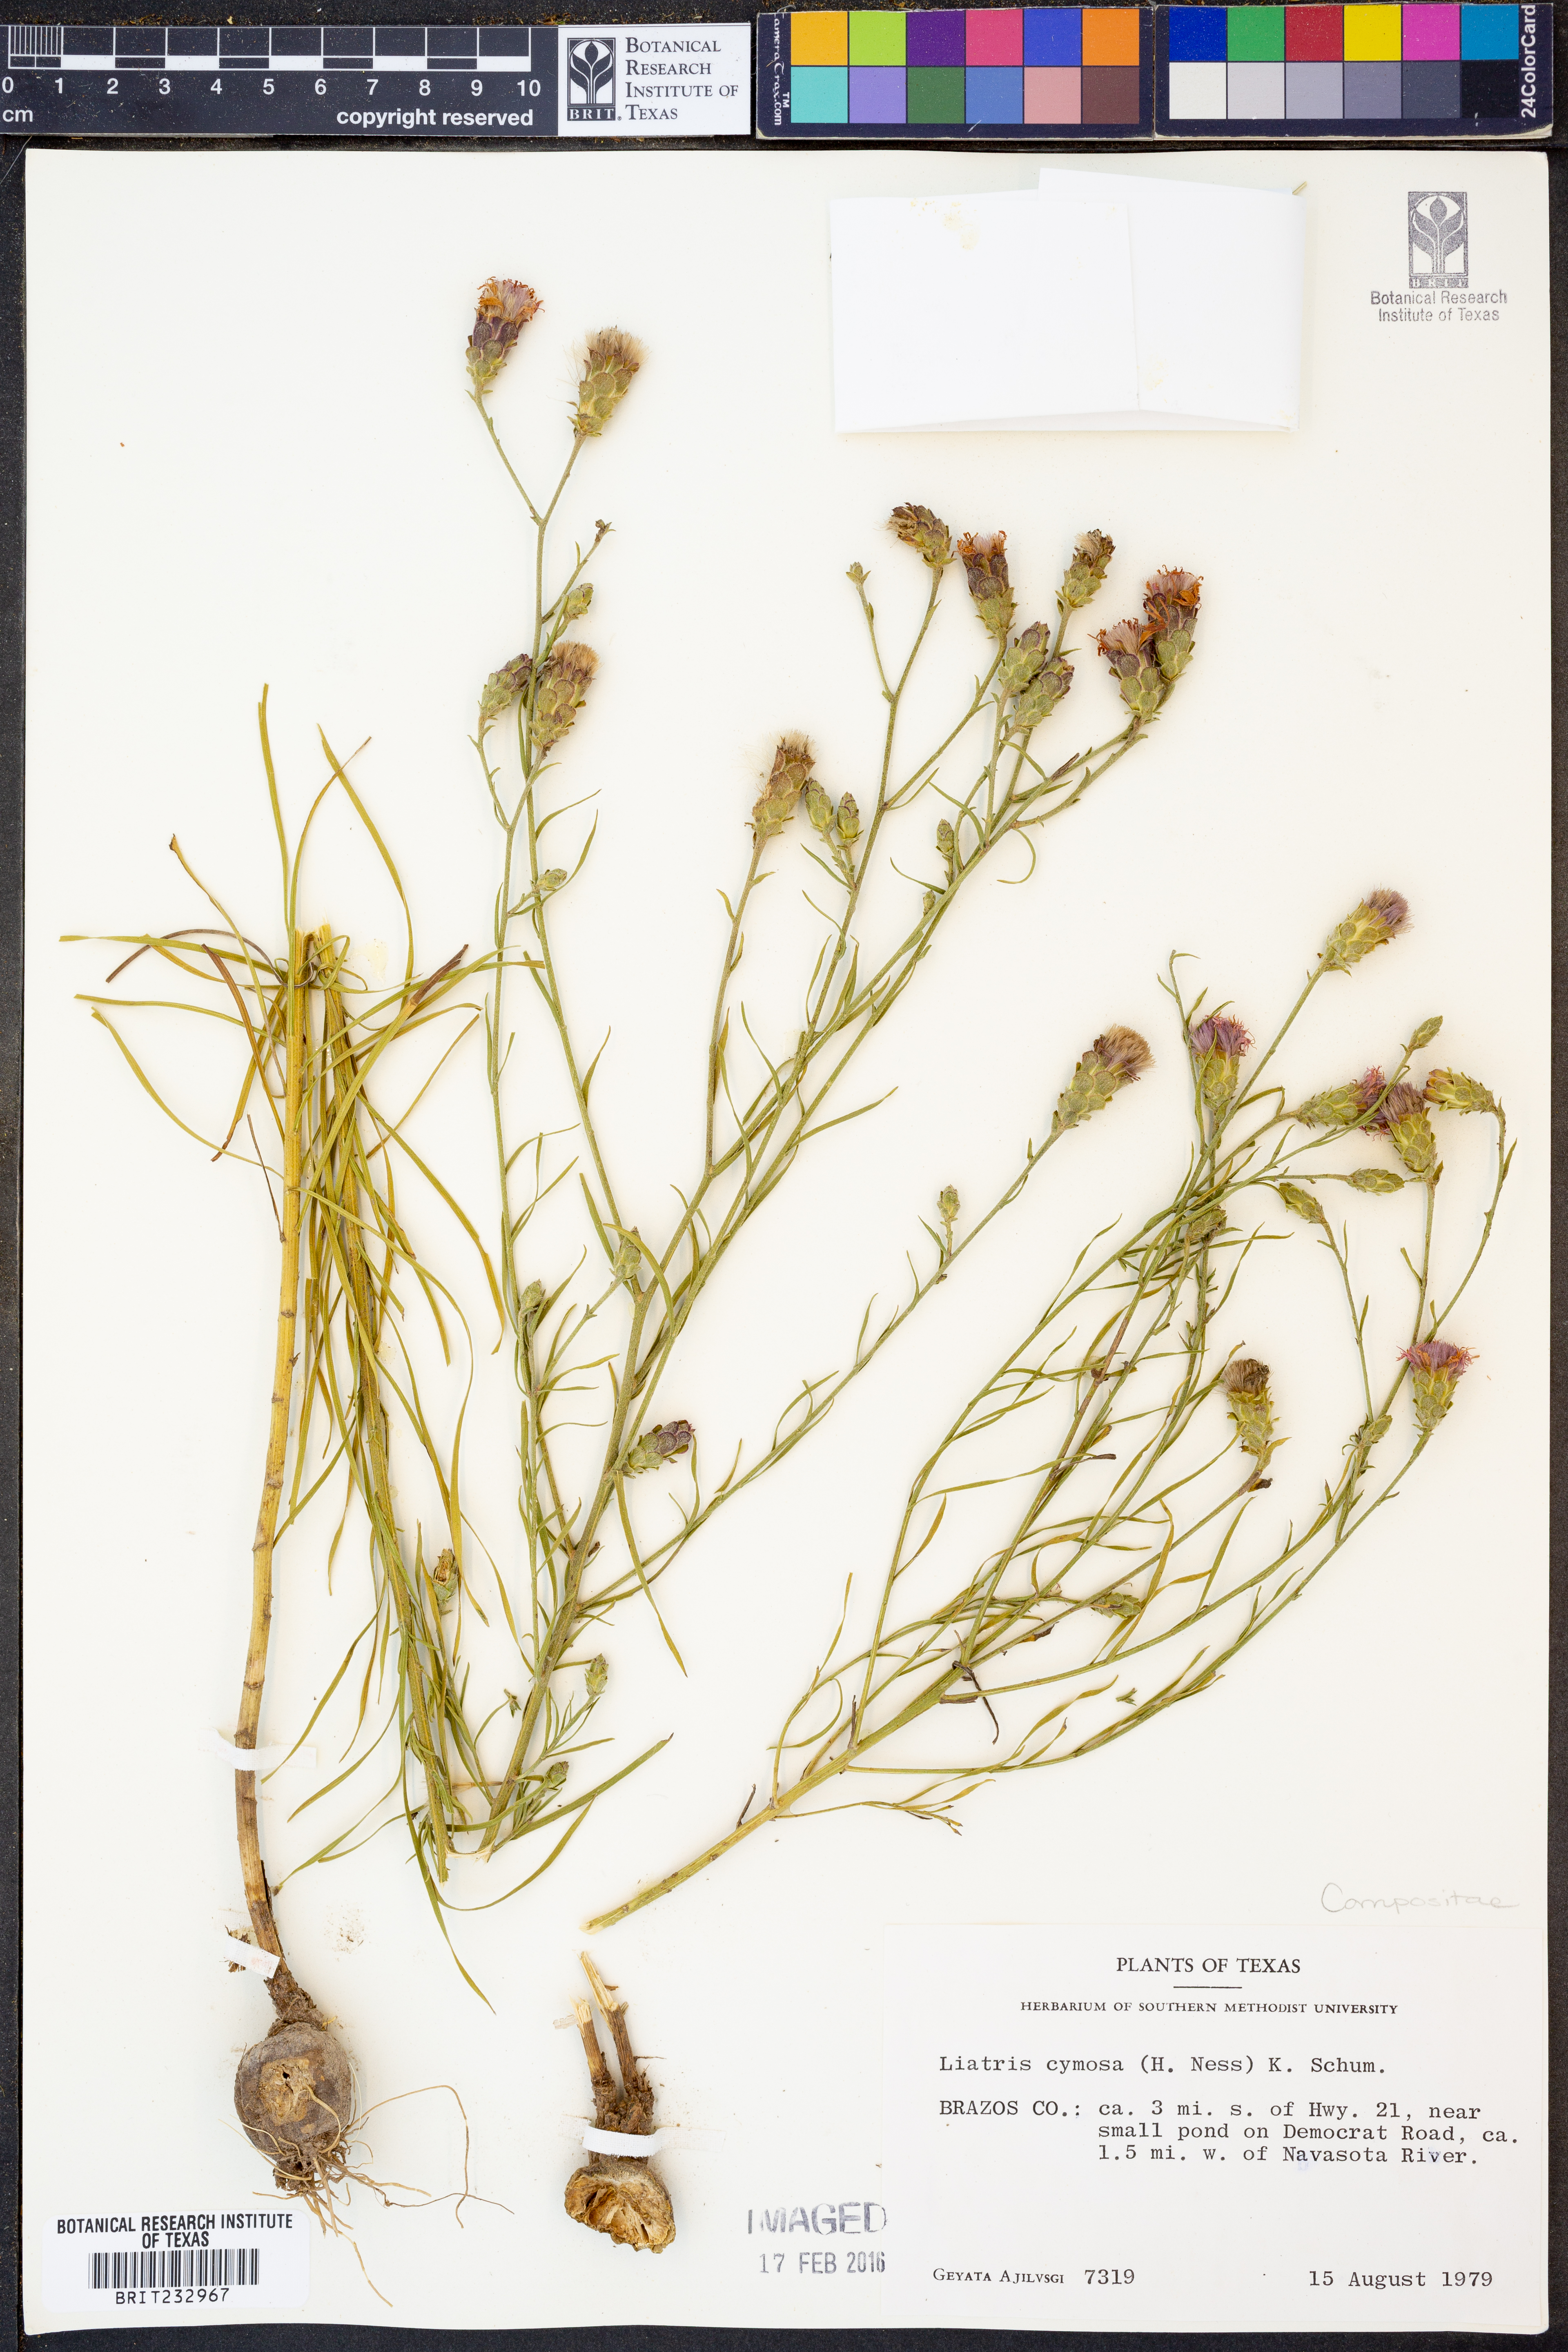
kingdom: Plantae
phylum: Tracheophyta
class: Magnoliopsida
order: Asterales
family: Asteraceae
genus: Liatris
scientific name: Liatris cymosa
